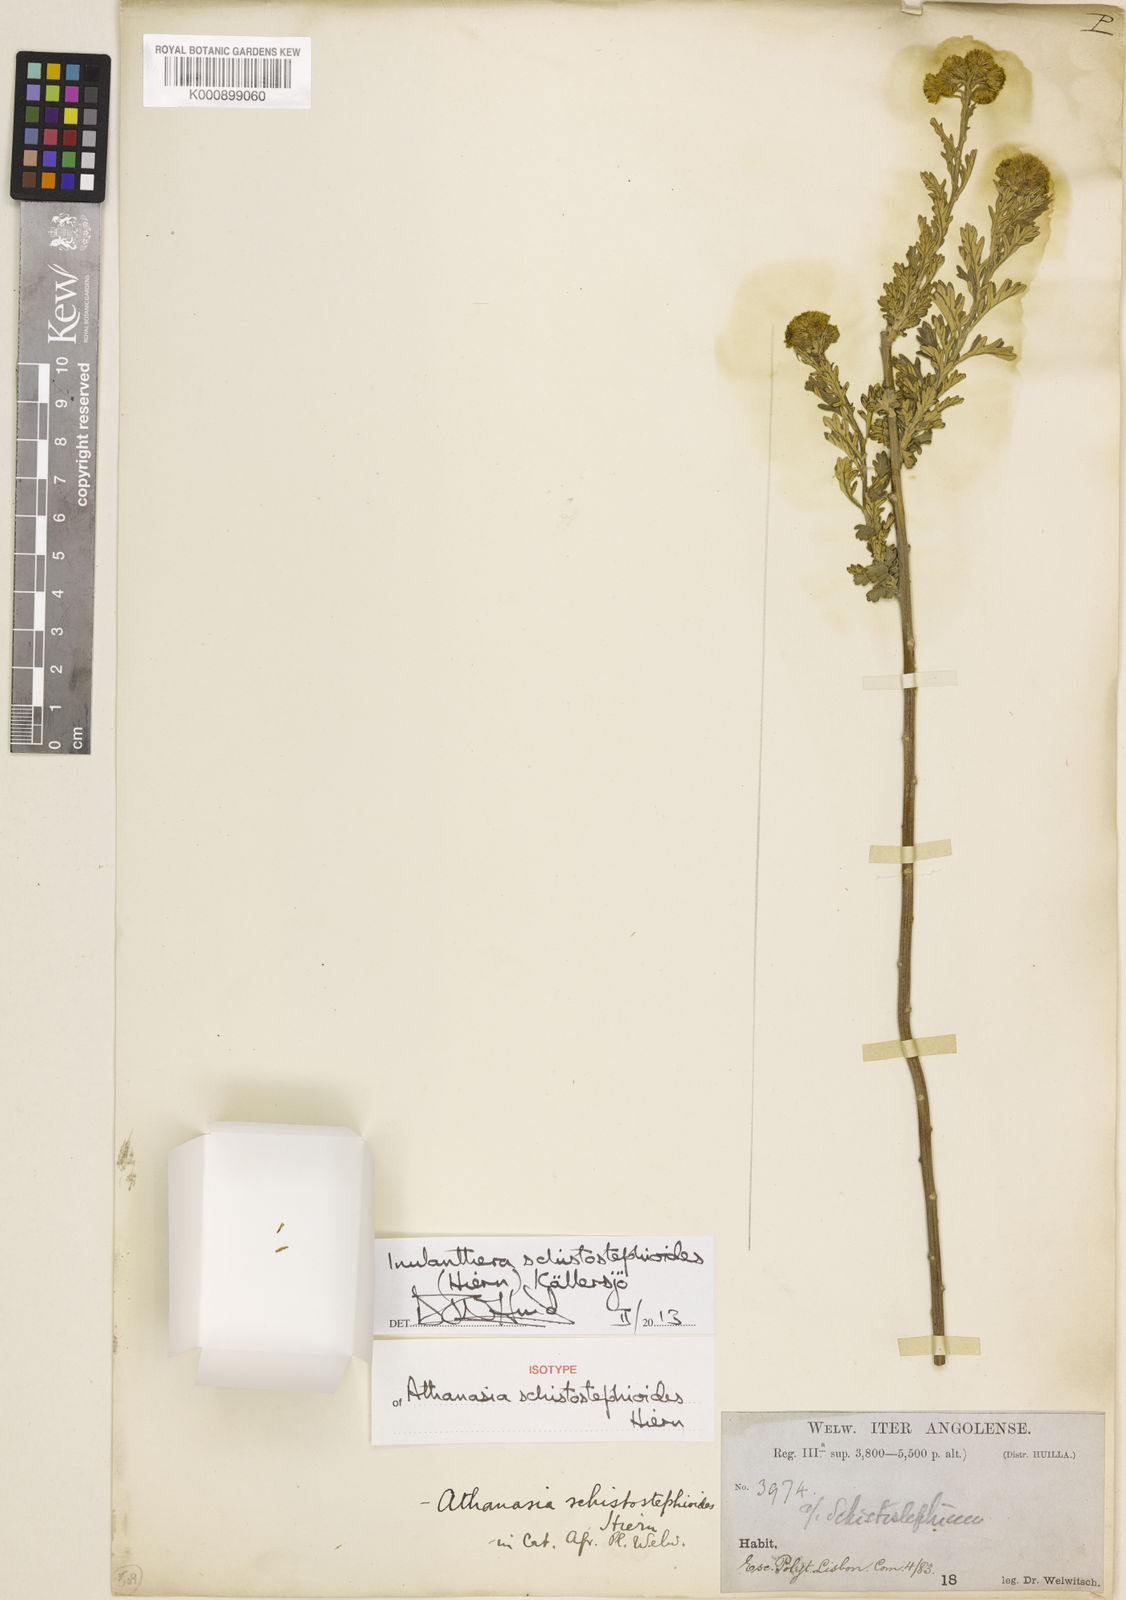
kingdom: Plantae
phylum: Tracheophyta
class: Magnoliopsida
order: Asterales
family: Asteraceae
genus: Inulanthera
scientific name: Inulanthera
